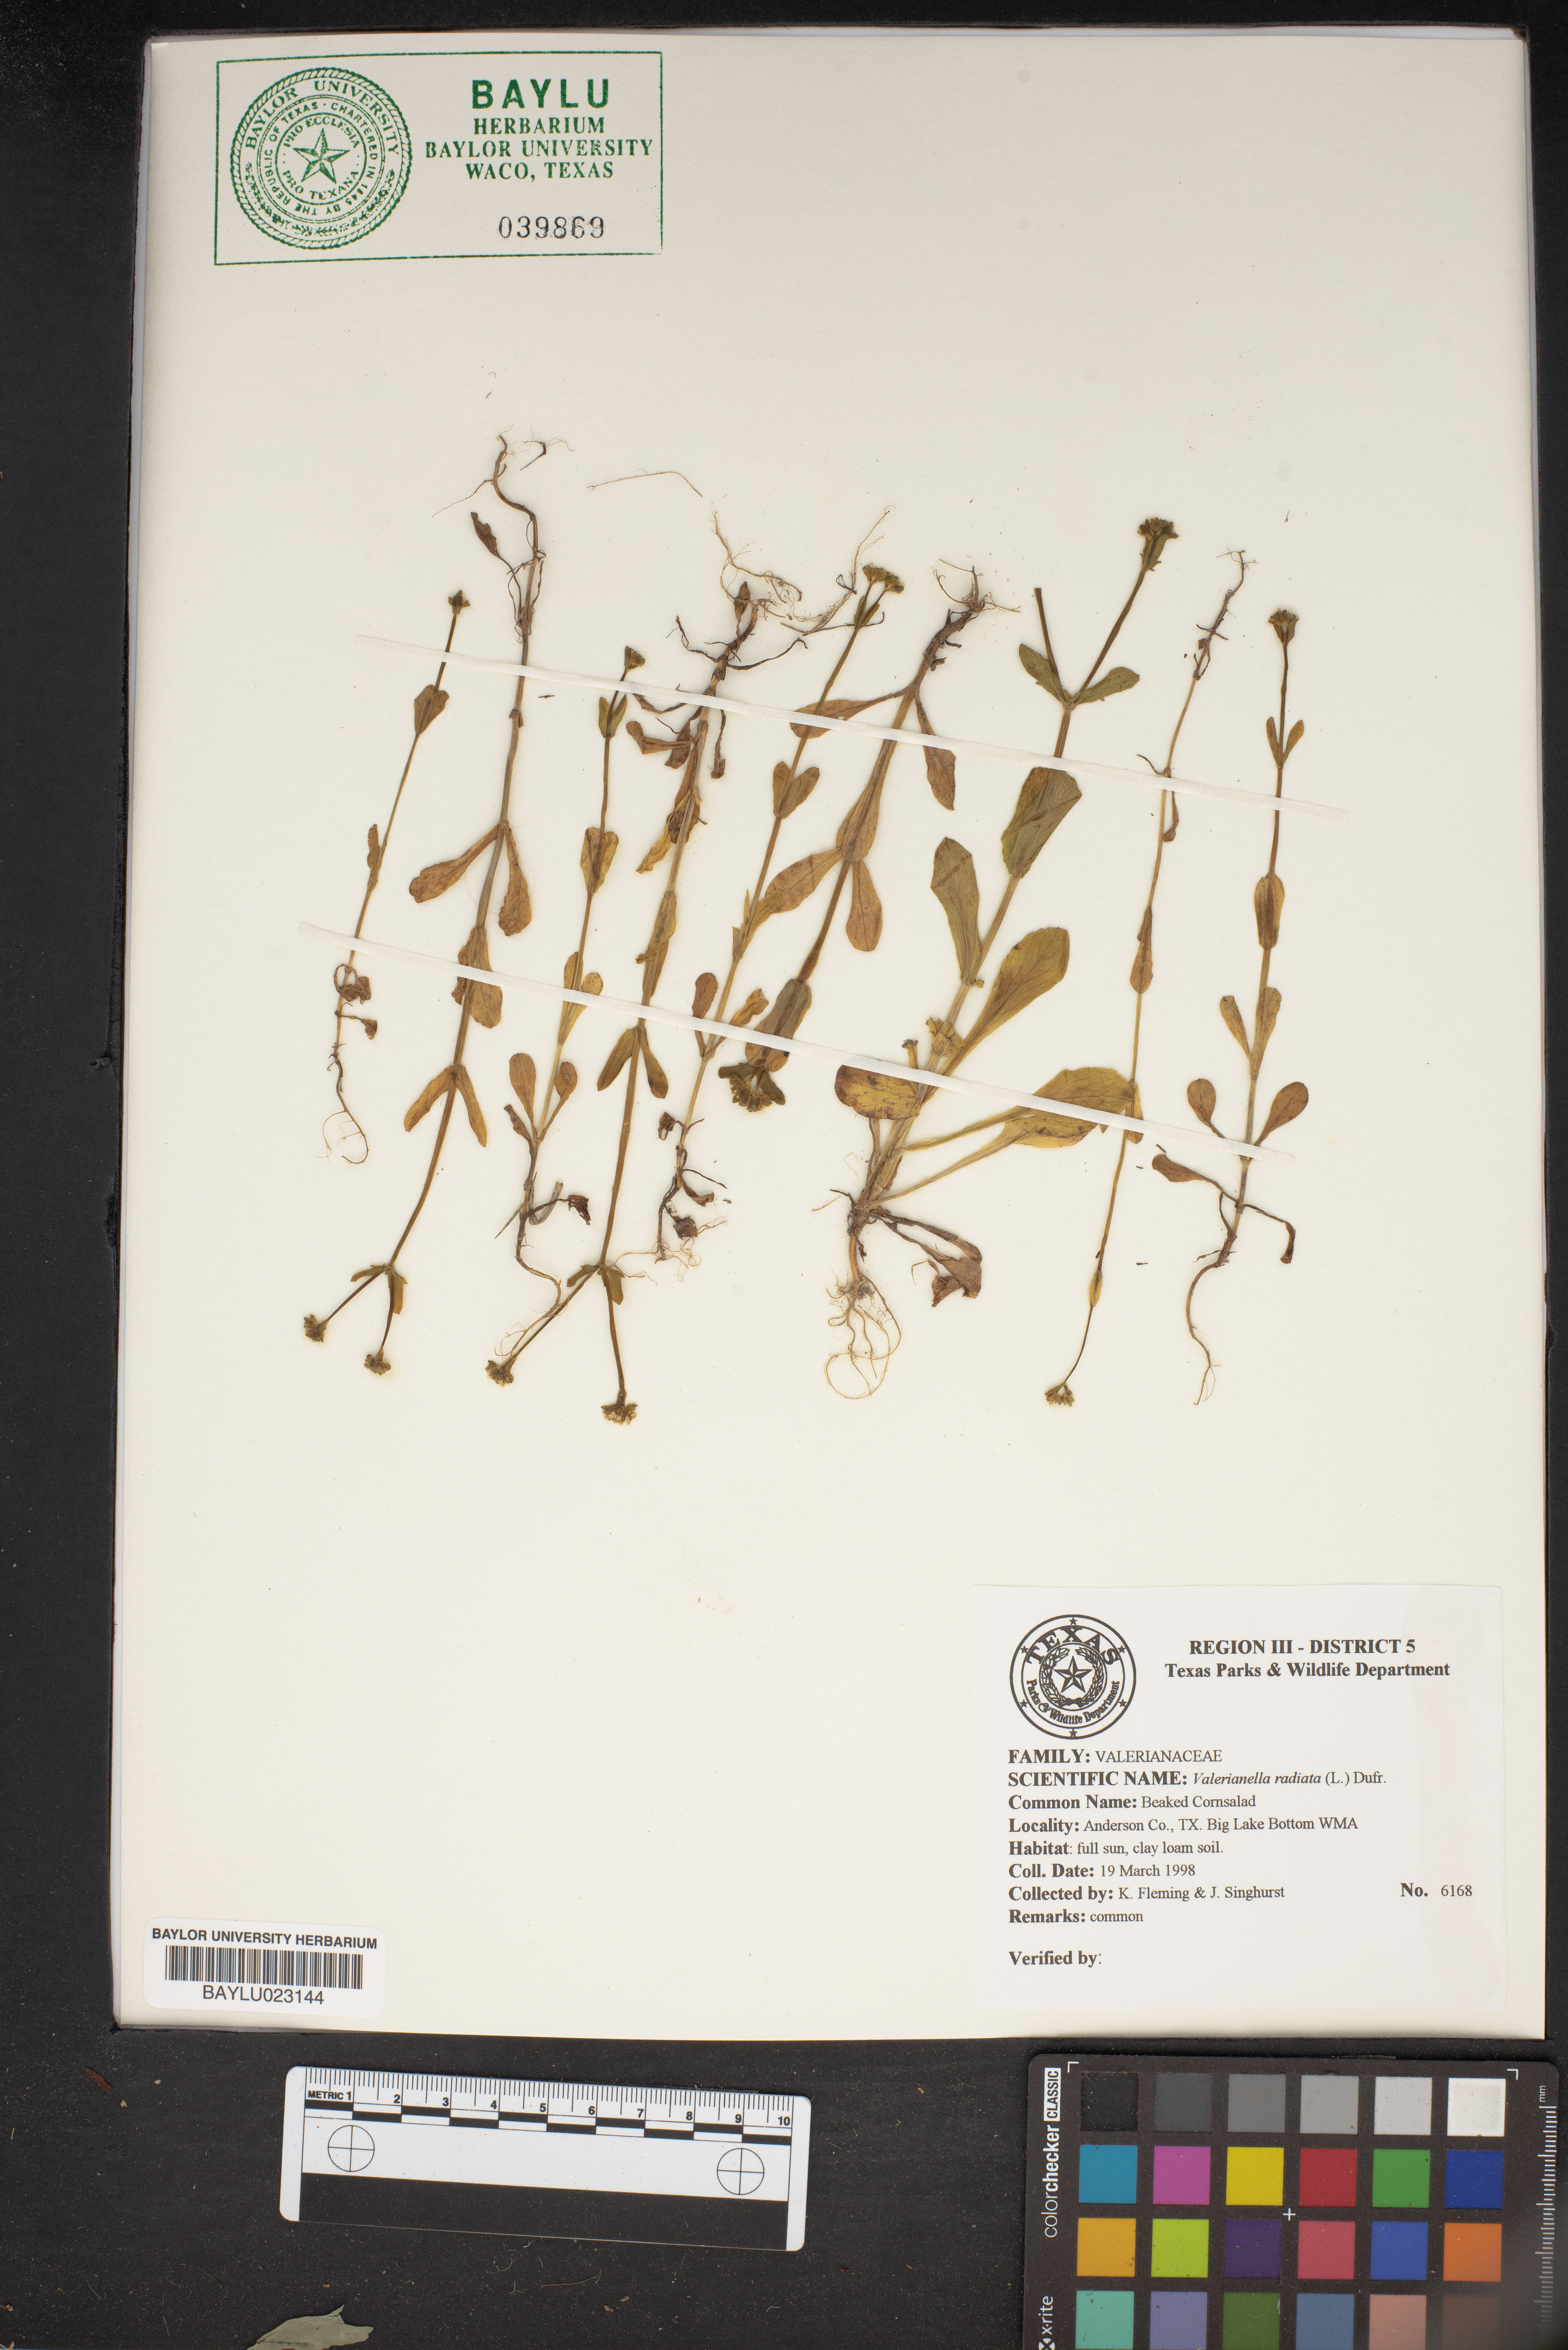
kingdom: Plantae
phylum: Tracheophyta
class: Magnoliopsida
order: Dipsacales
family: Caprifoliaceae
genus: Valerianella
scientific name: Valerianella radiata
